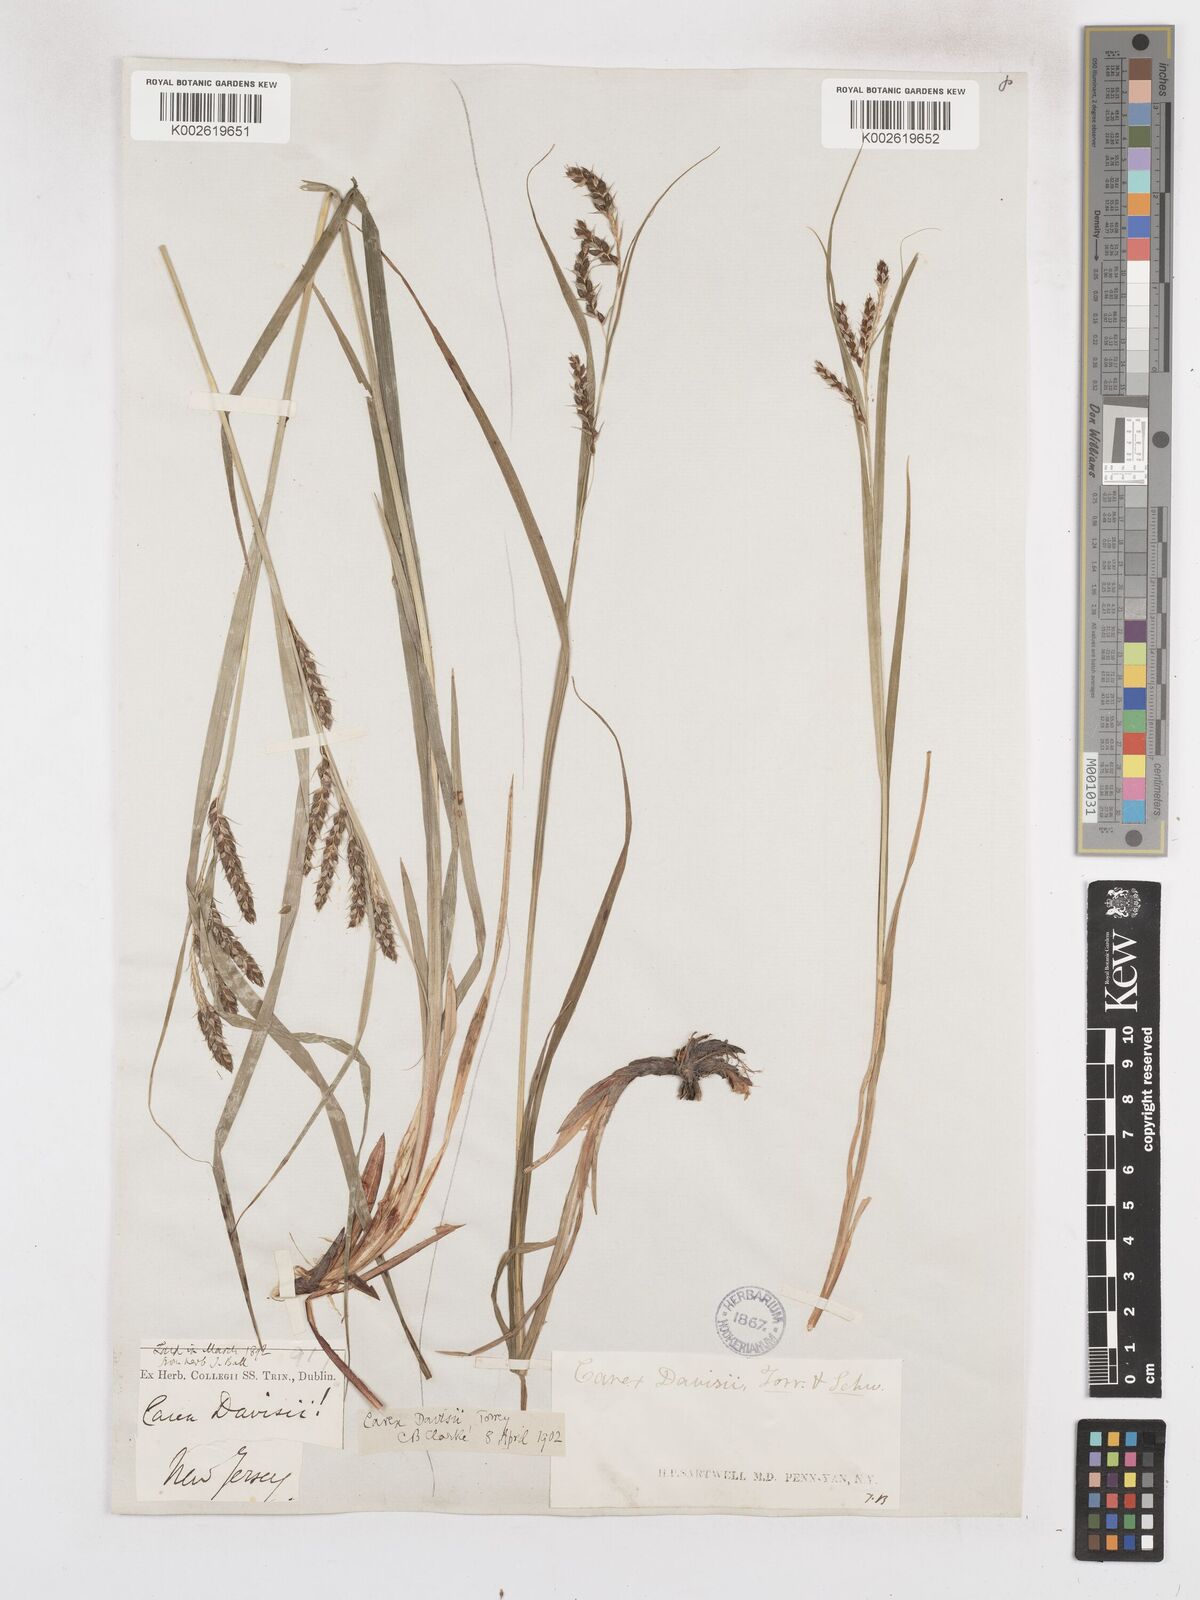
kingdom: Plantae
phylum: Tracheophyta
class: Liliopsida
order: Poales
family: Cyperaceae
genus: Carex
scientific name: Carex davisii
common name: Davis' sedge
